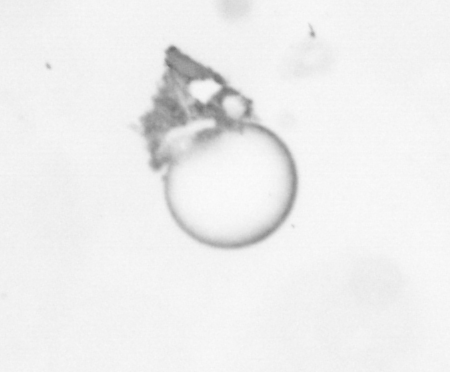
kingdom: Chromista
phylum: Ochrophyta
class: Bacillariophyceae
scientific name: Bacillariophyceae
